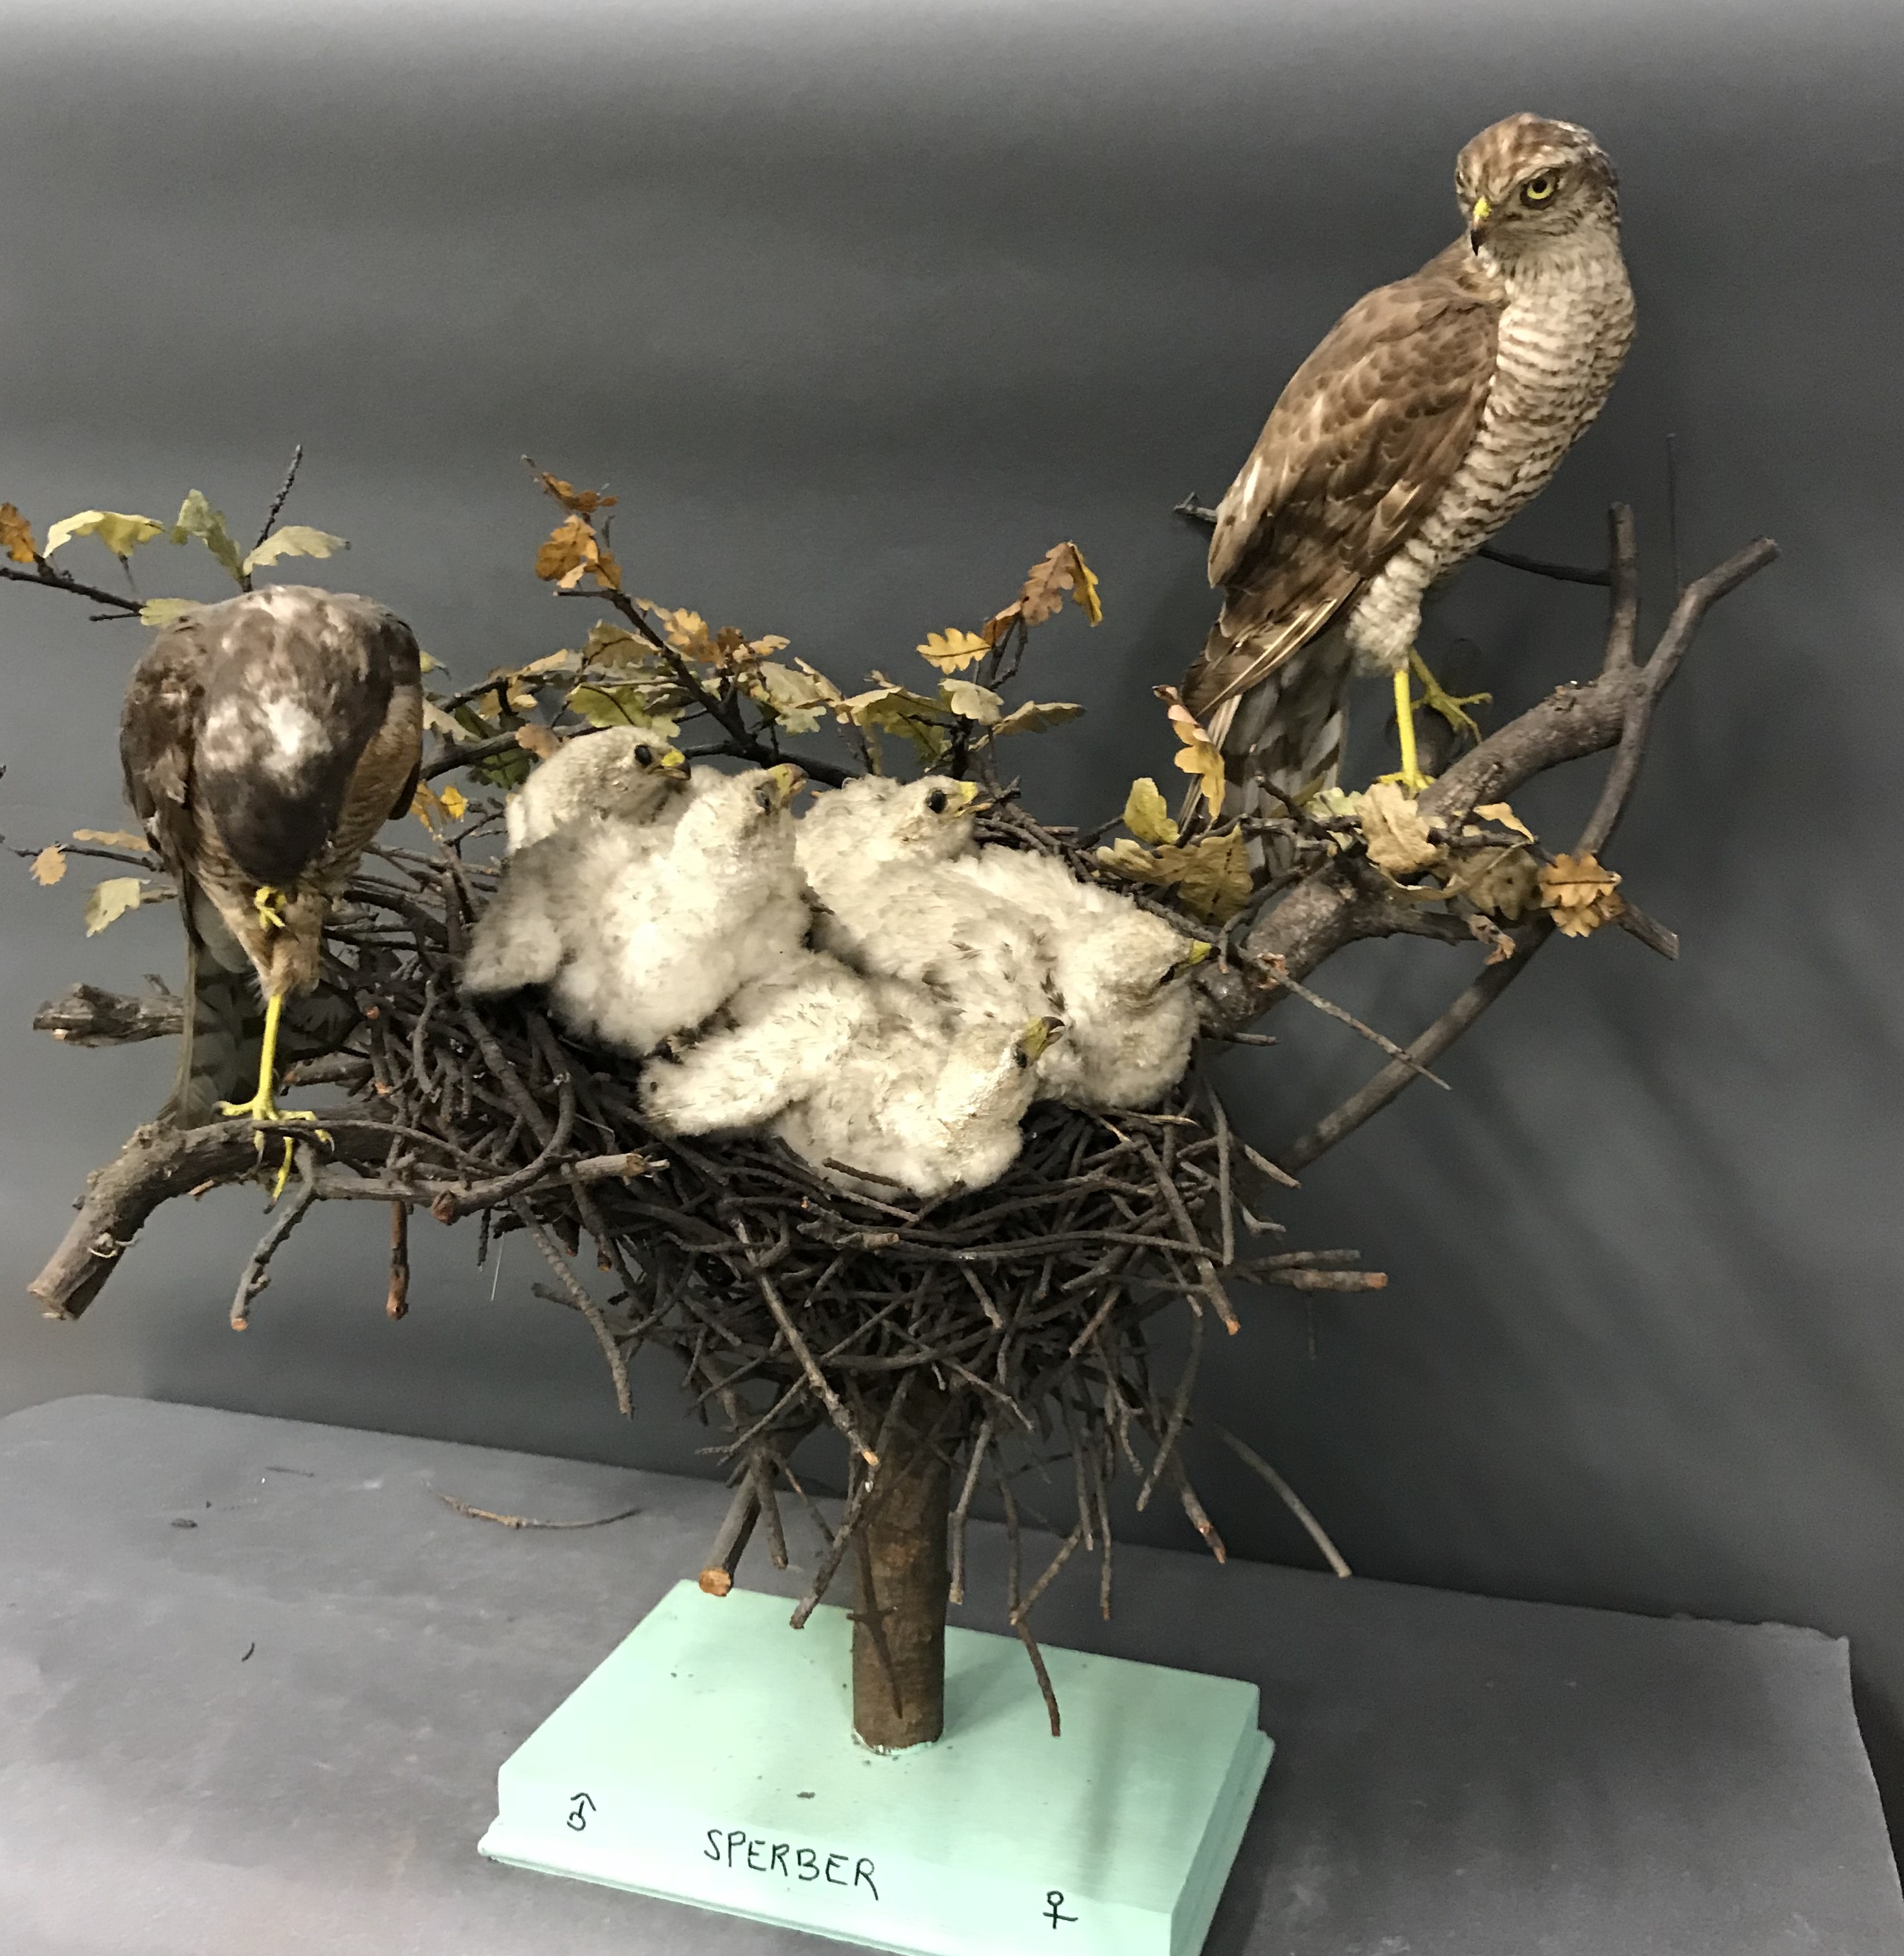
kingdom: Animalia
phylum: Chordata
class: Aves
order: Accipitriformes
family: Accipitridae
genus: Accipiter
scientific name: Accipiter nisus
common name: Eurasian sparrowhawk
